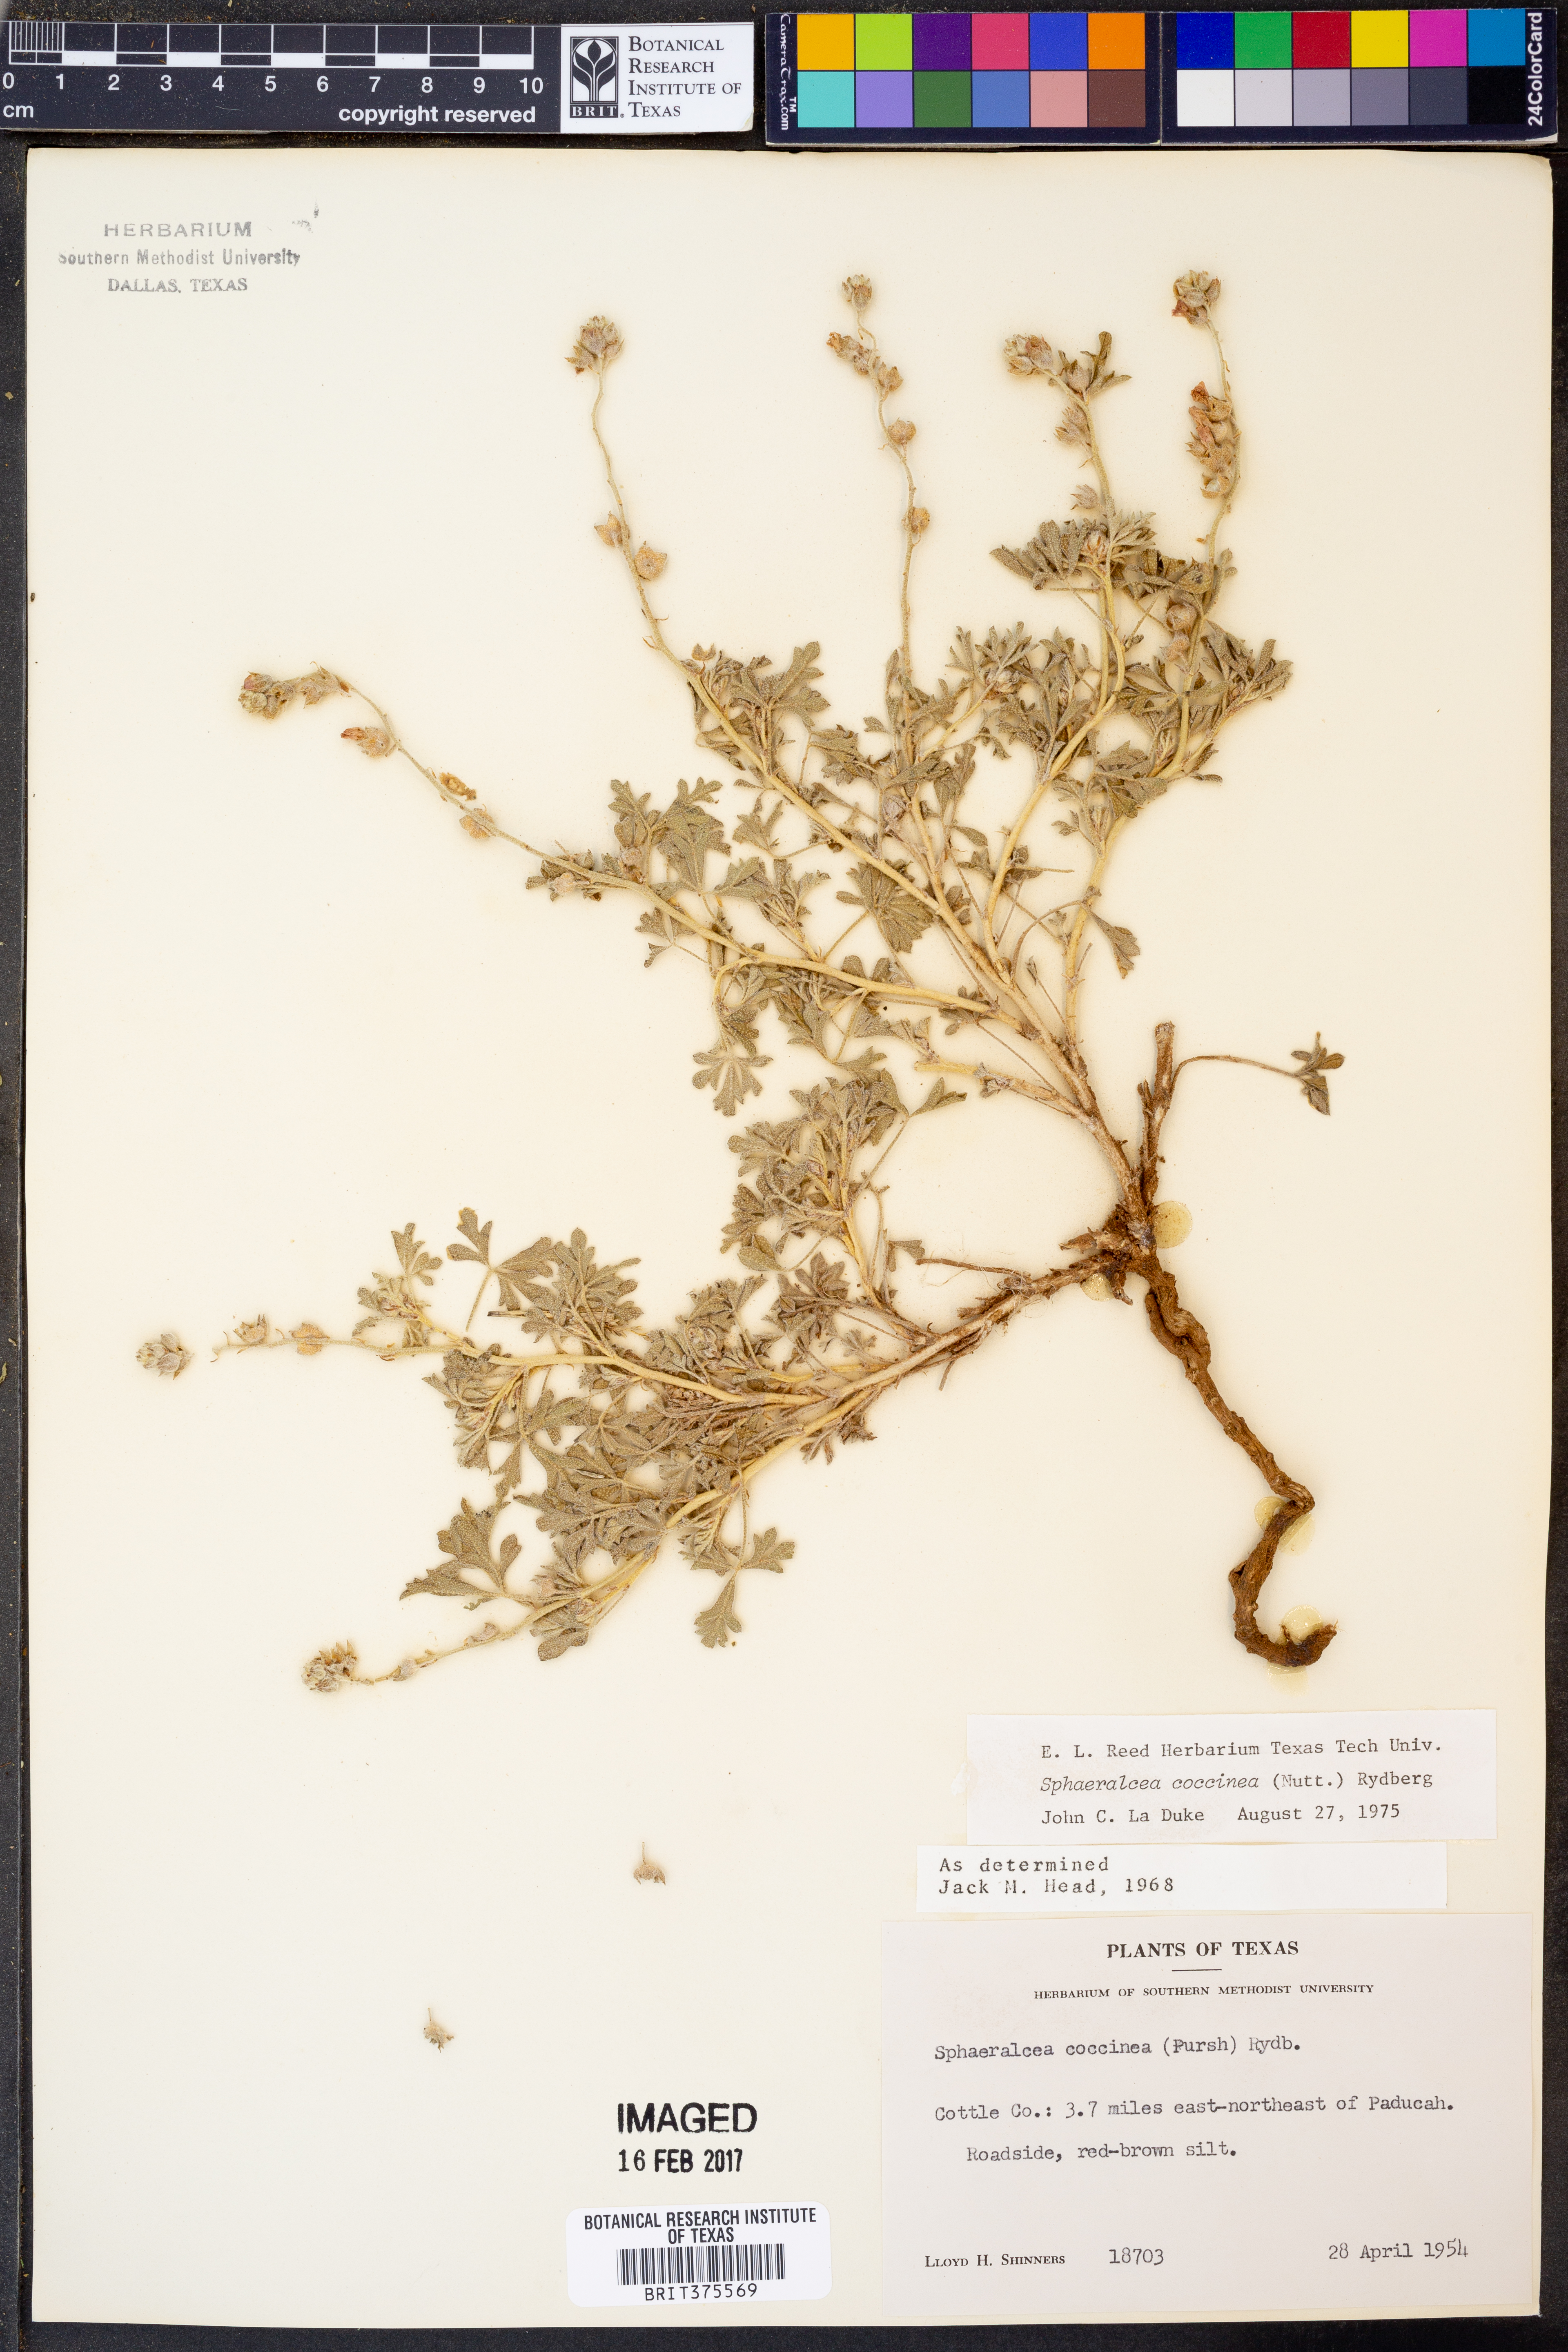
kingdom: Plantae
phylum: Tracheophyta
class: Magnoliopsida
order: Malvales
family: Malvaceae
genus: Sphaeralcea
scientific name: Sphaeralcea coccinea
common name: Moss-rose
